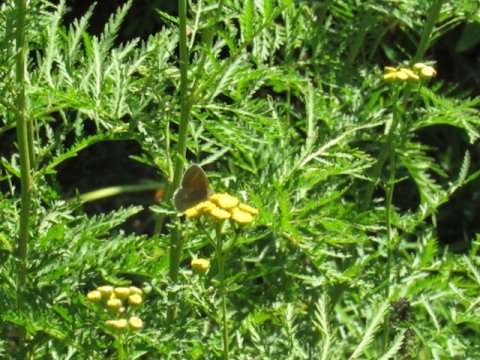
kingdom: Animalia
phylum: Arthropoda
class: Insecta
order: Lepidoptera
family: Nymphalidae
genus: Coenonympha
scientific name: Coenonympha tullia
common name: Large Heath
